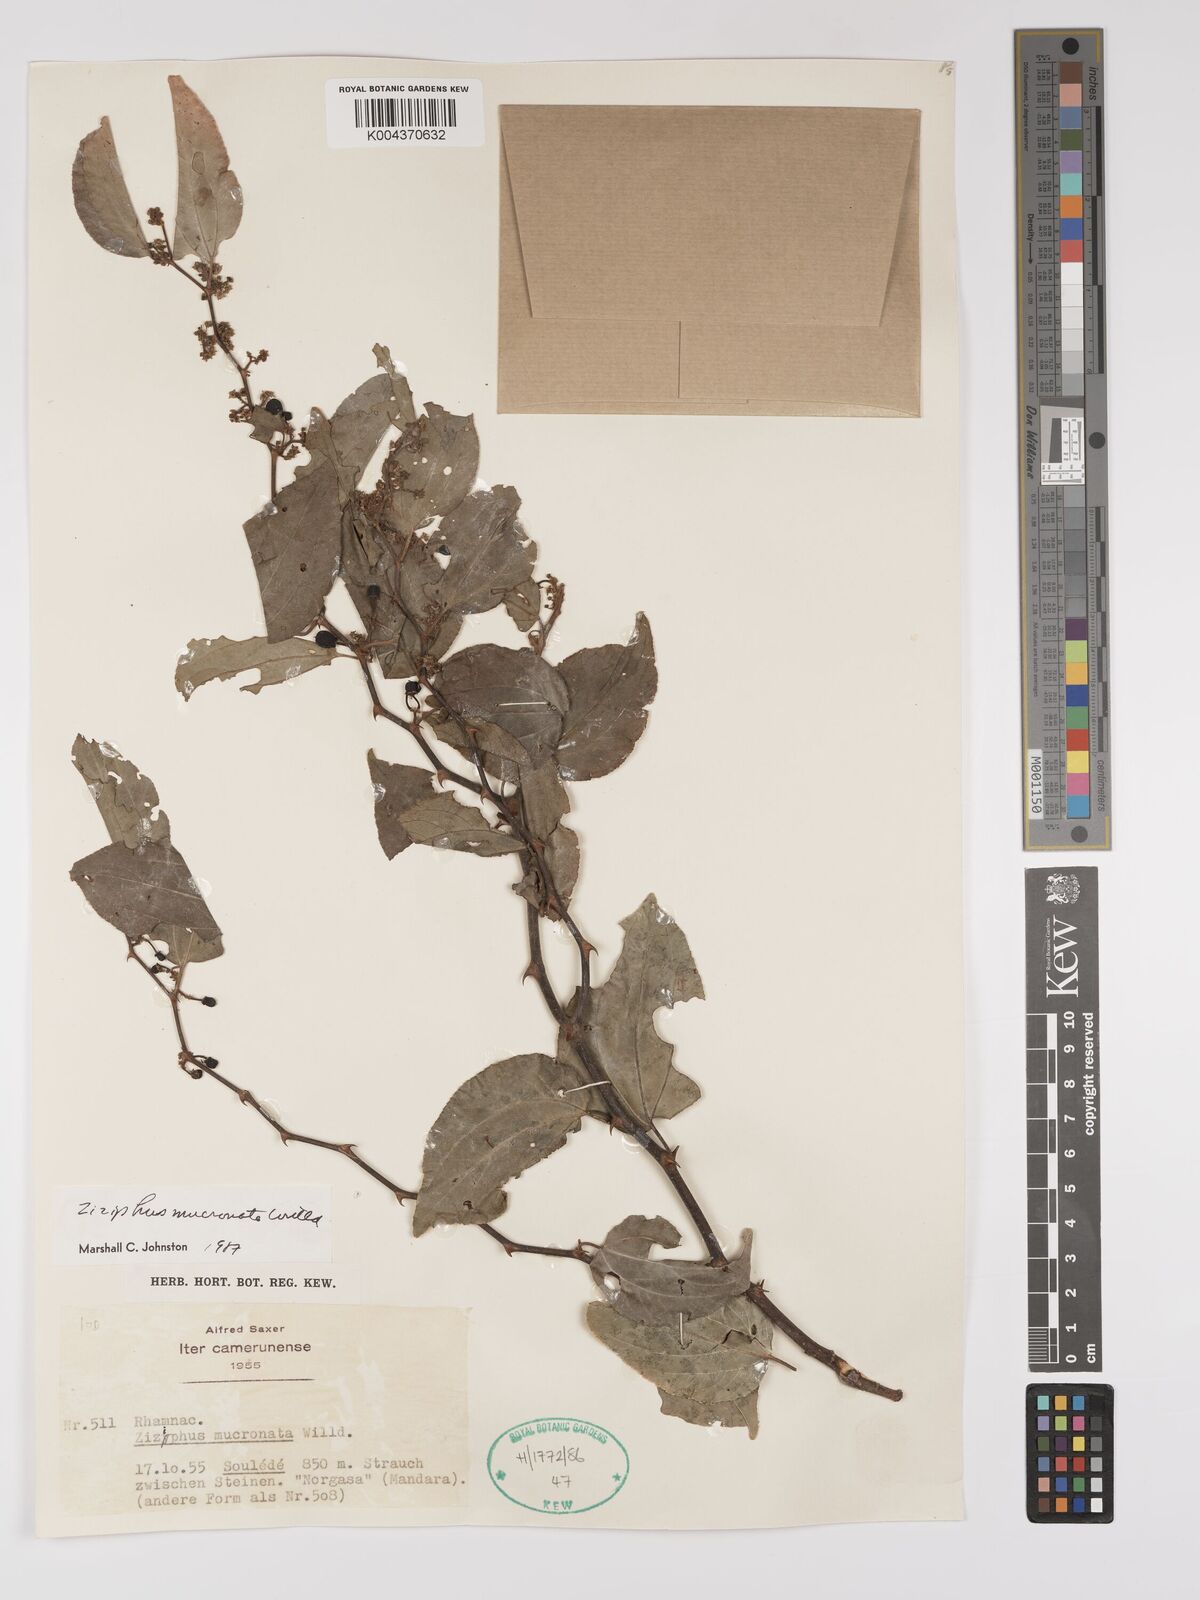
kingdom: Plantae
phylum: Tracheophyta
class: Magnoliopsida
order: Rosales
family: Rhamnaceae
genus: Ziziphus
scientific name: Ziziphus mucronata
